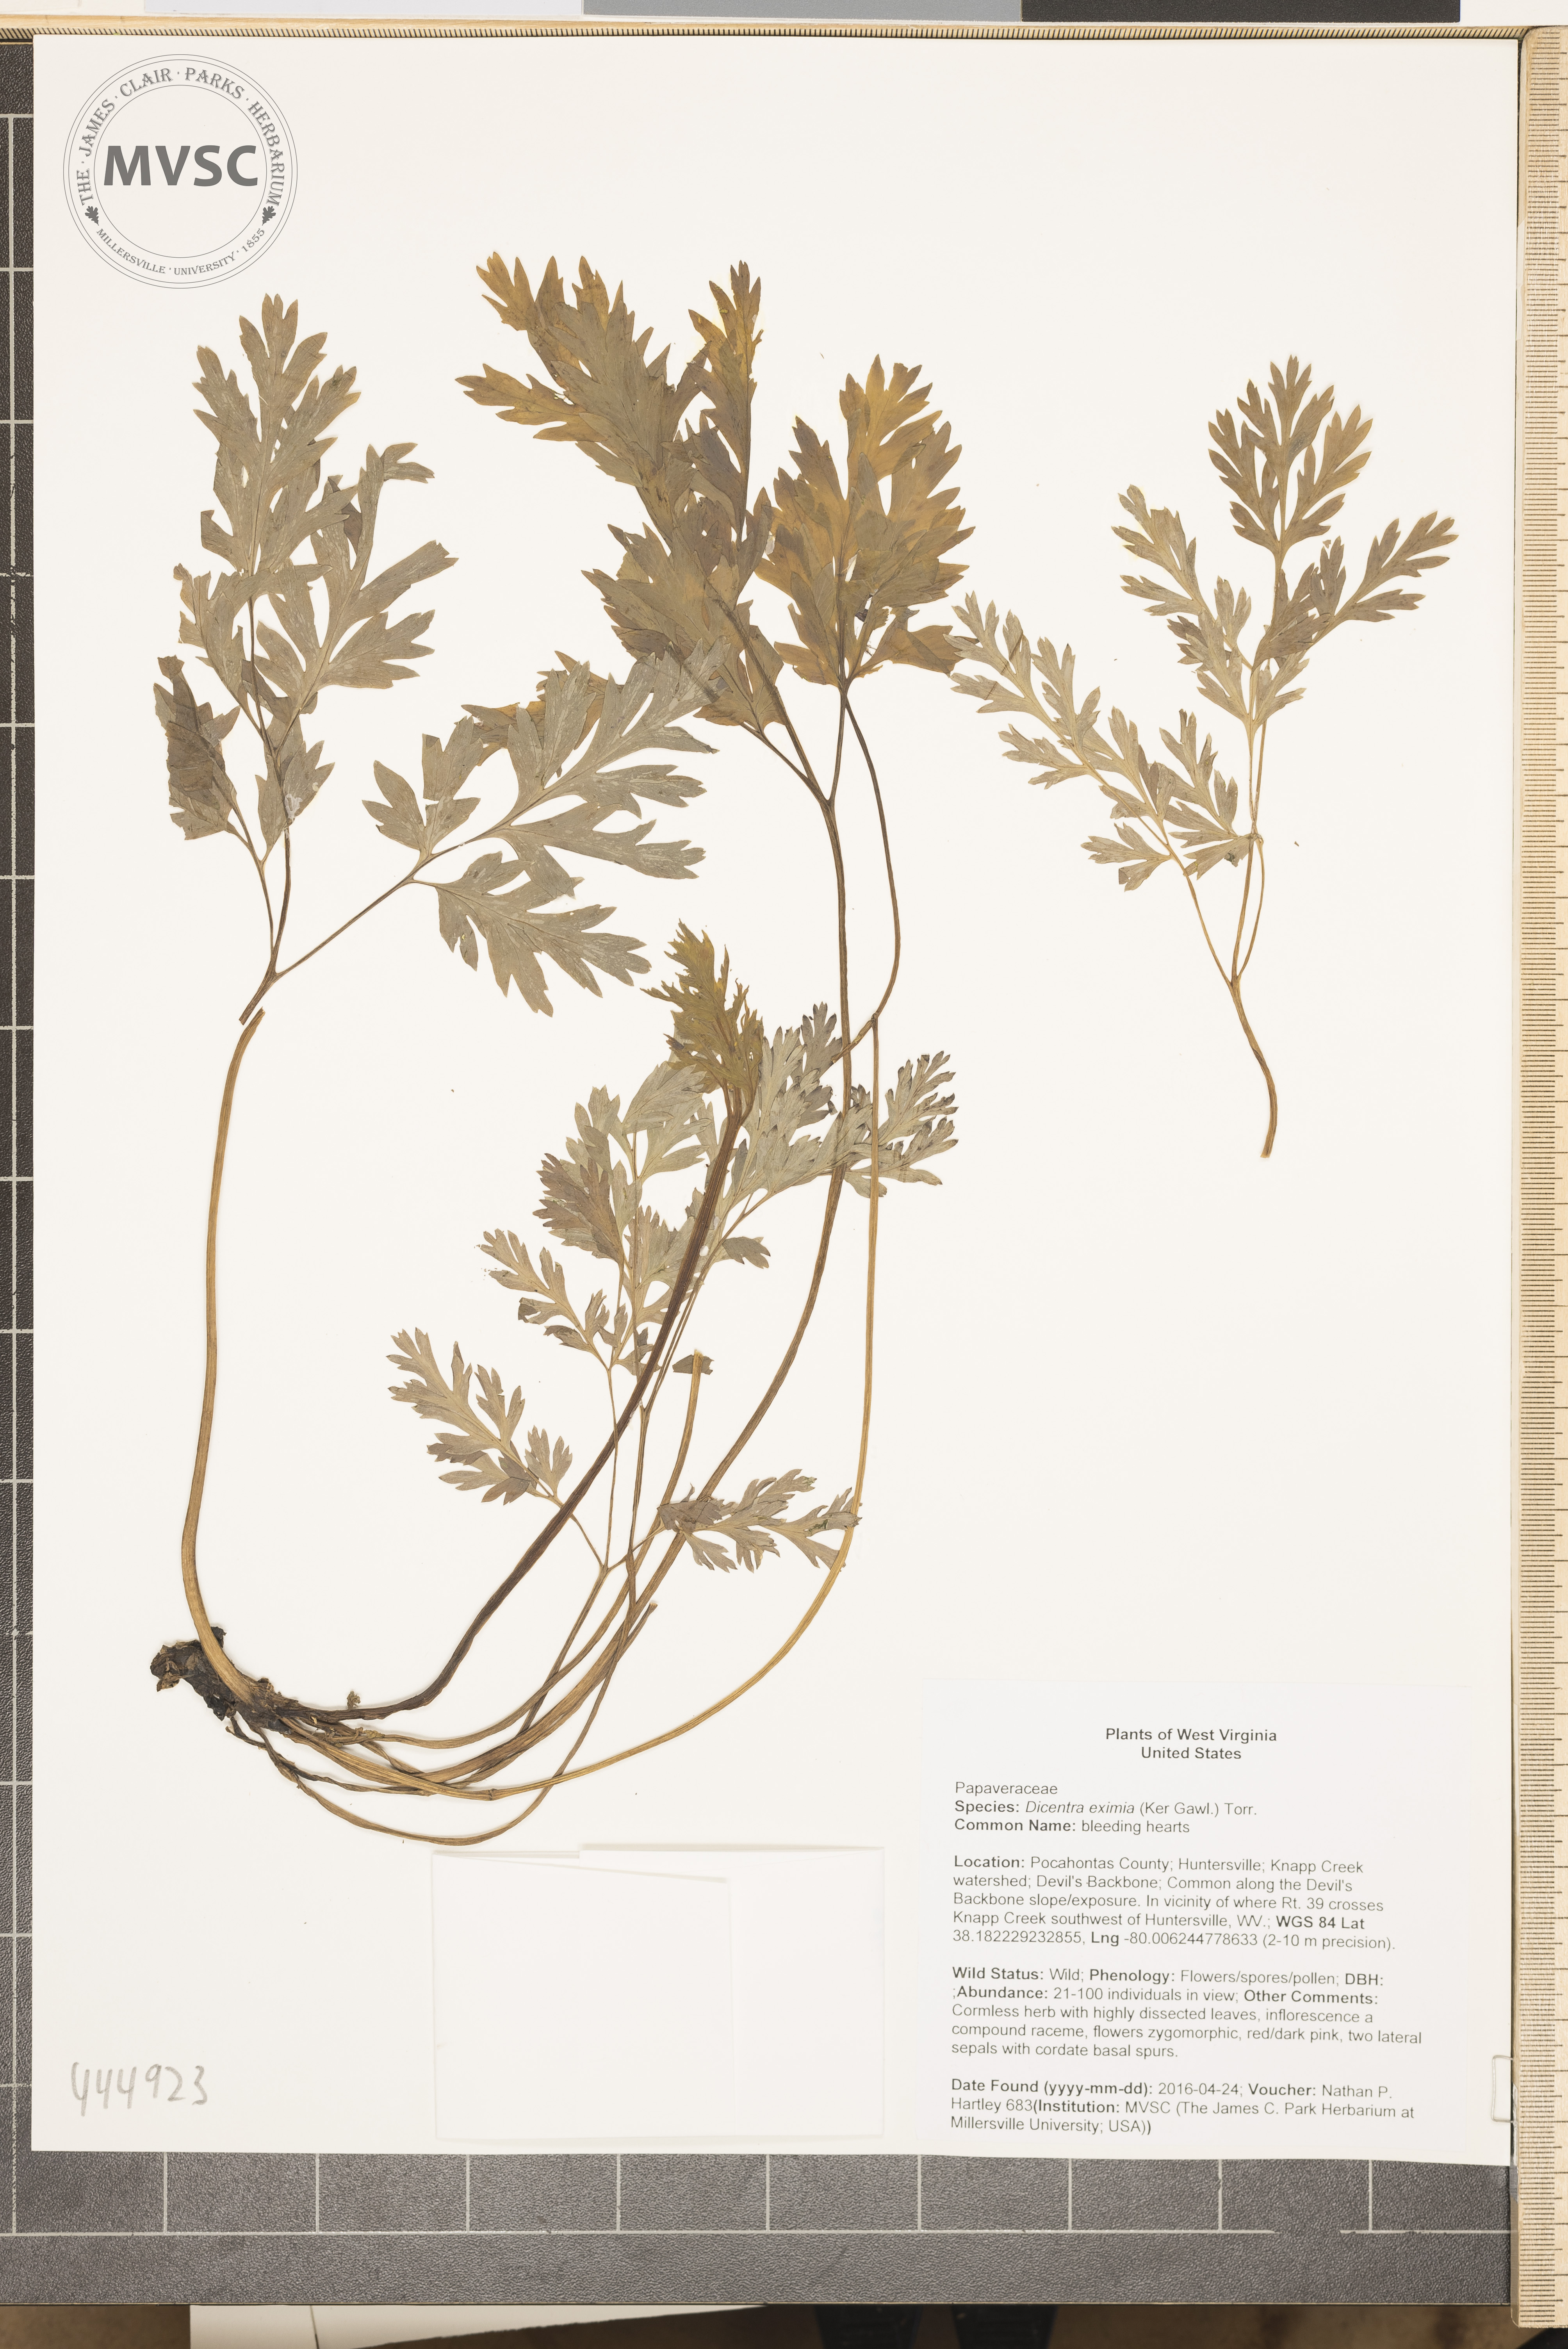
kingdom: Plantae
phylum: Tracheophyta
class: Magnoliopsida
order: Ranunculales
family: Papaveraceae
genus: Dicentra
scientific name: Dicentra eximia
